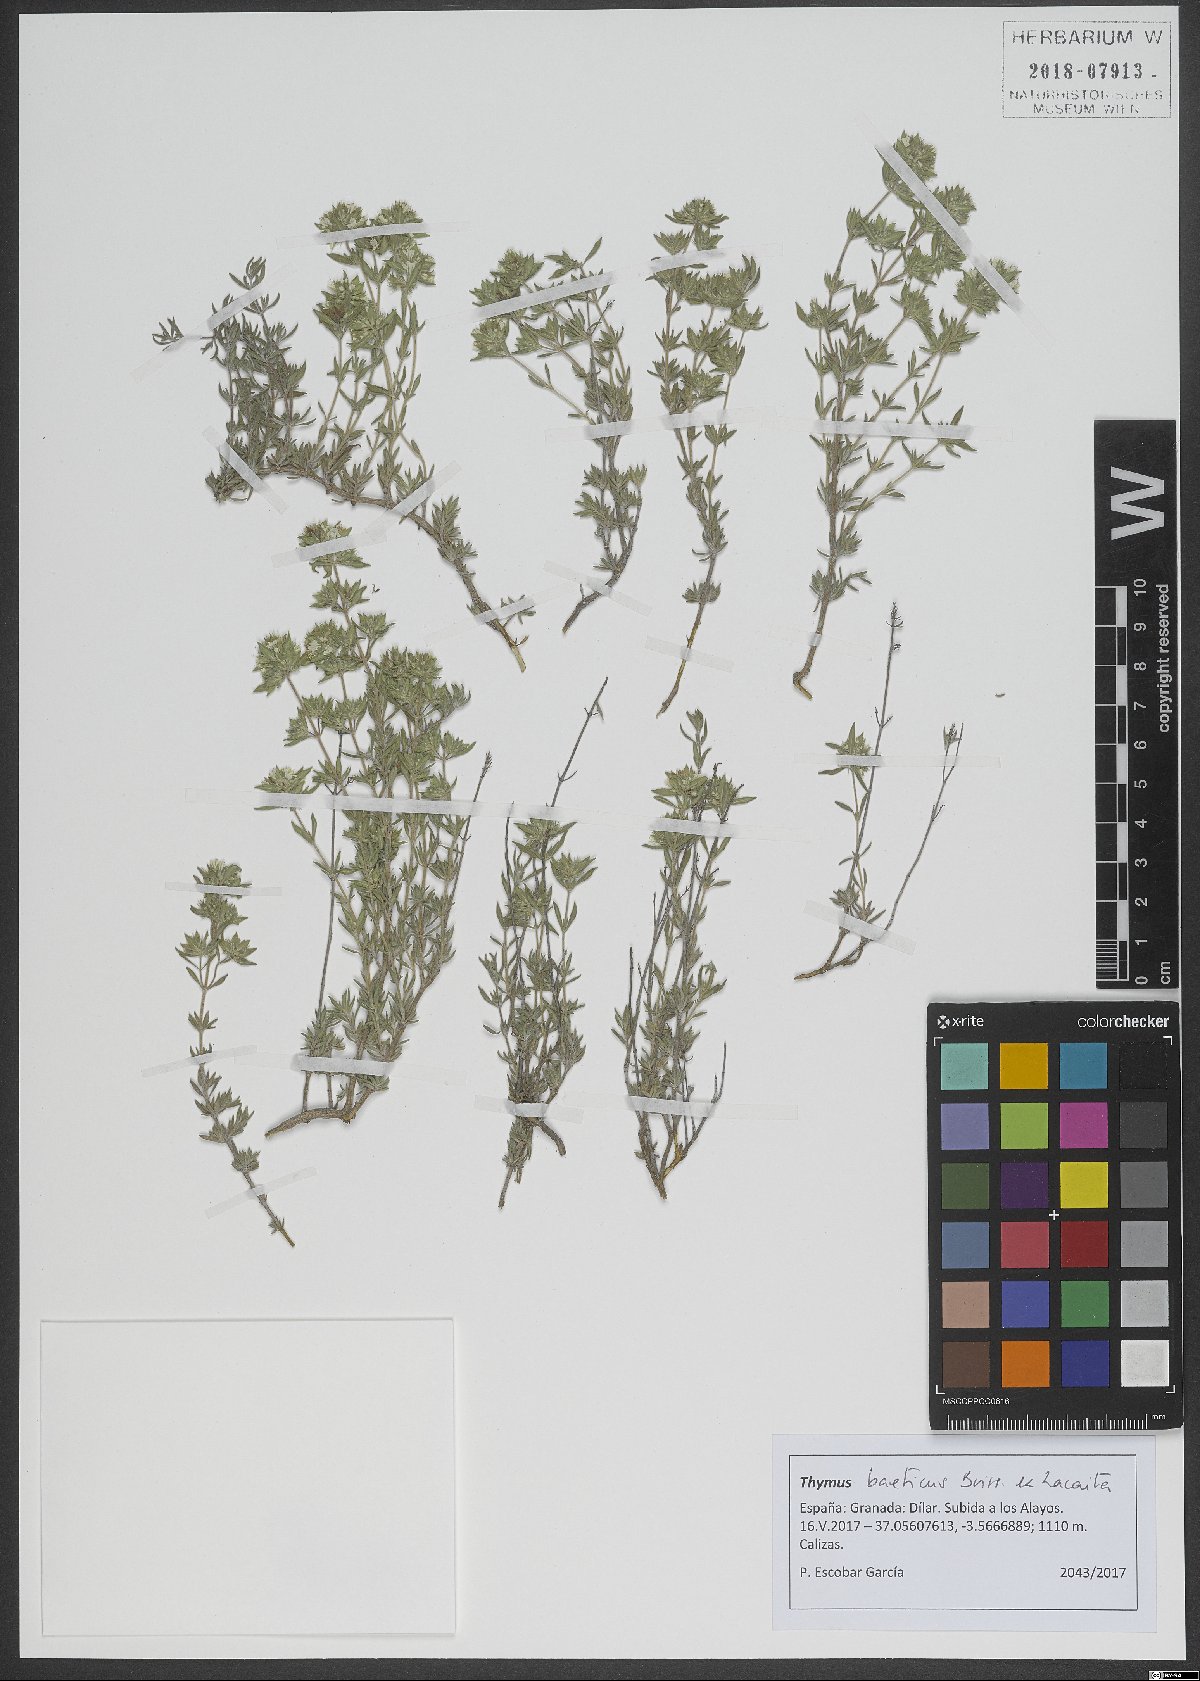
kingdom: Plantae
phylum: Tracheophyta
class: Magnoliopsida
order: Lamiales
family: Lamiaceae
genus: Thymus
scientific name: Thymus baeticus
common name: Spanish lemon thyme
